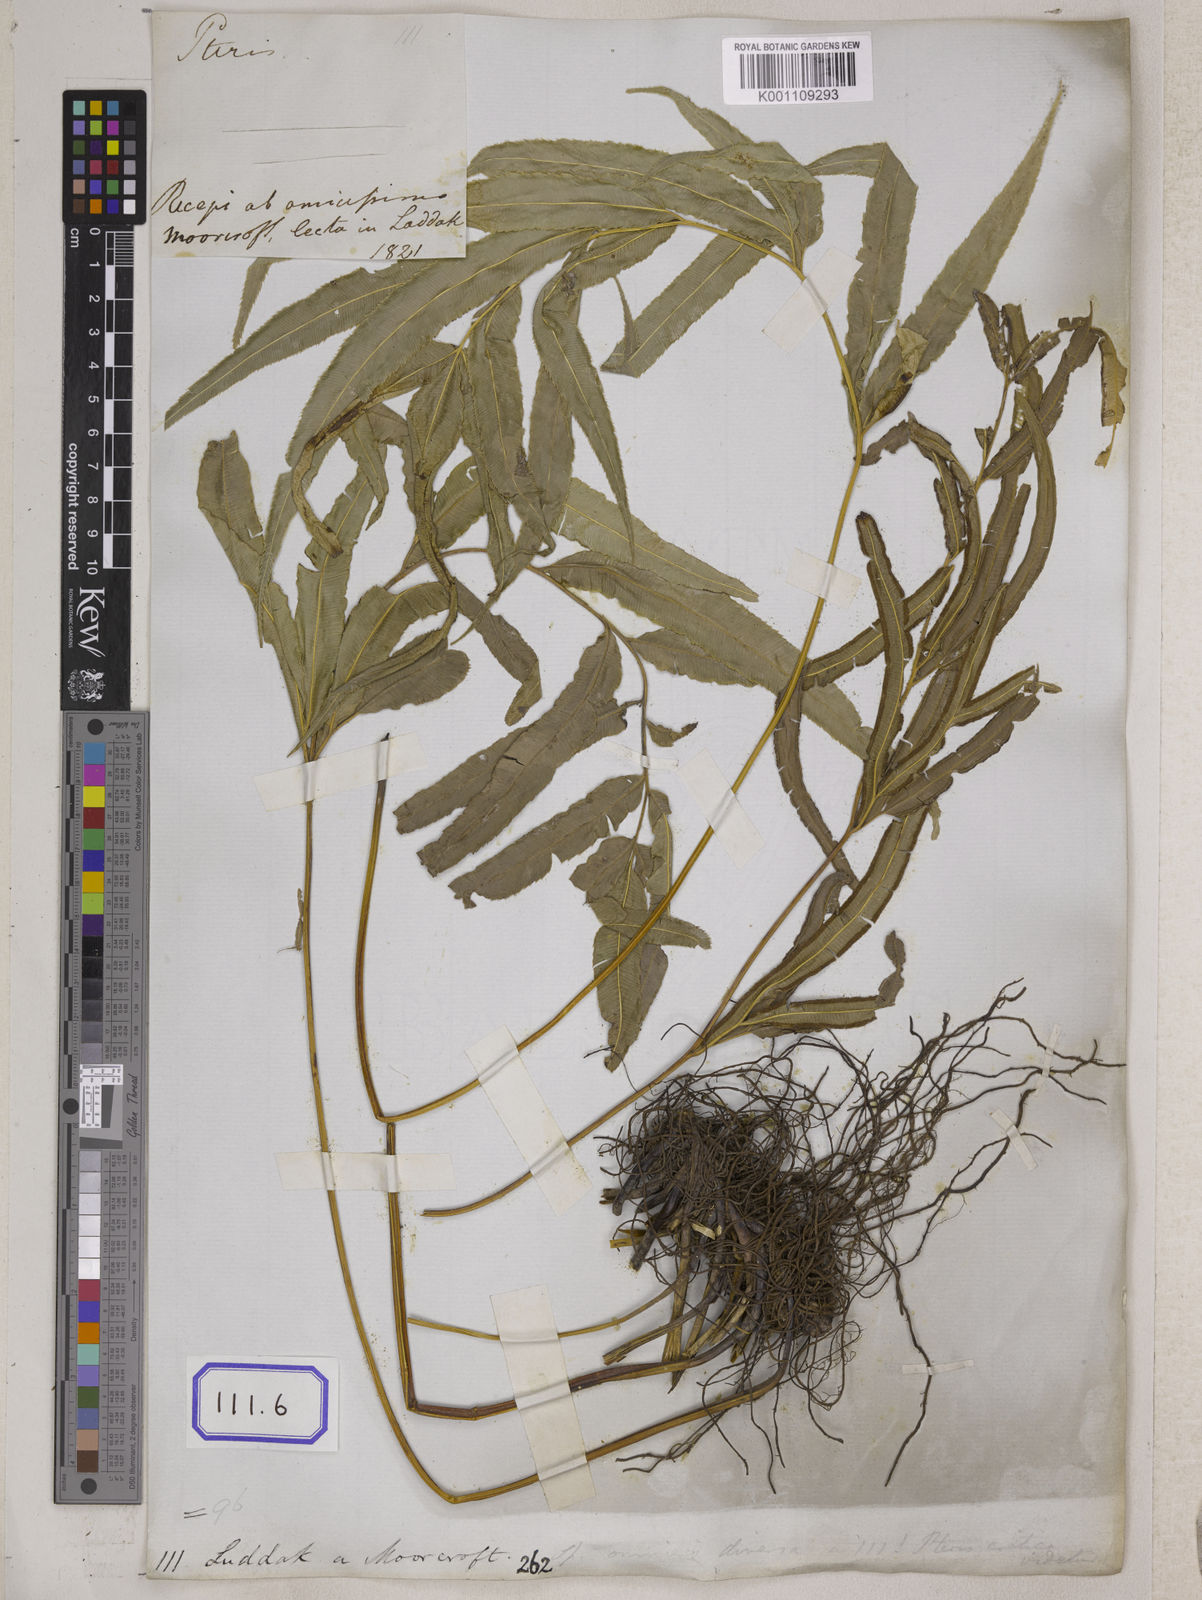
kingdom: Plantae
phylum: Tracheophyta
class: Polypodiopsida
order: Polypodiales
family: Pteridaceae
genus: Pteris
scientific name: Pteris longifolia
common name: Longleaf brake
